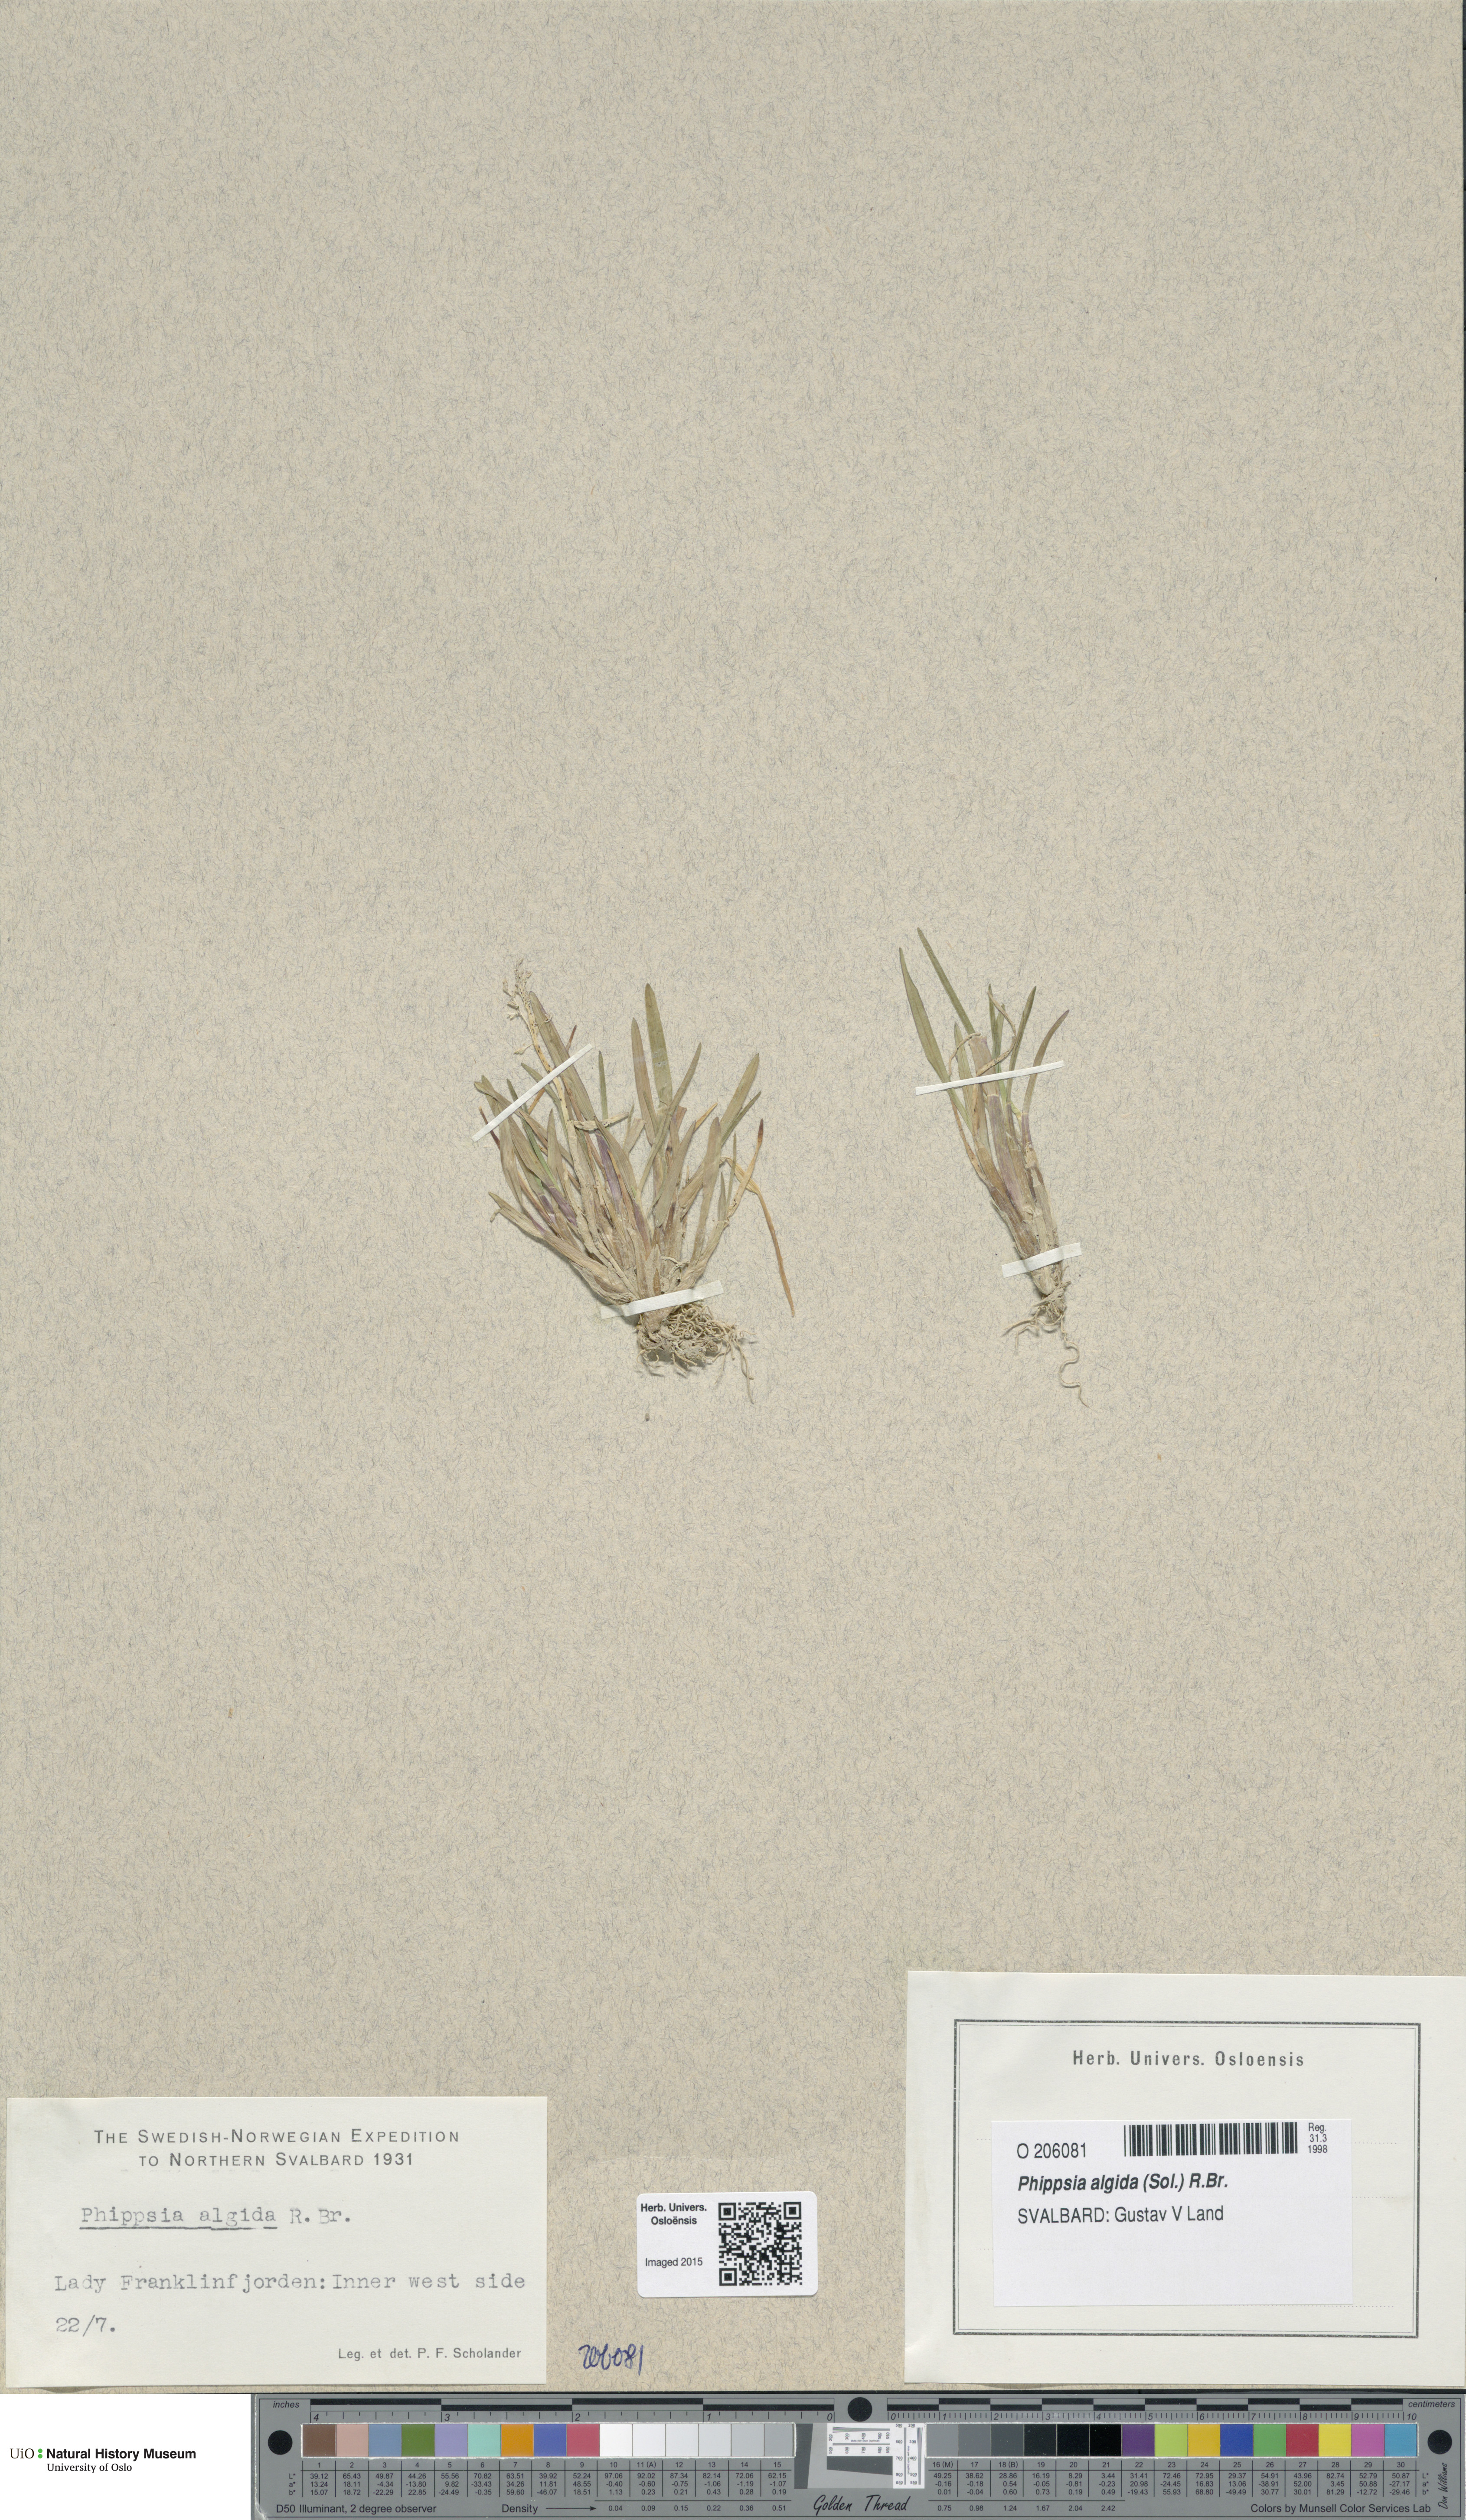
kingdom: Plantae
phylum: Tracheophyta
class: Liliopsida
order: Poales
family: Poaceae
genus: Phippsia
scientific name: Phippsia algida
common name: Ice grass
